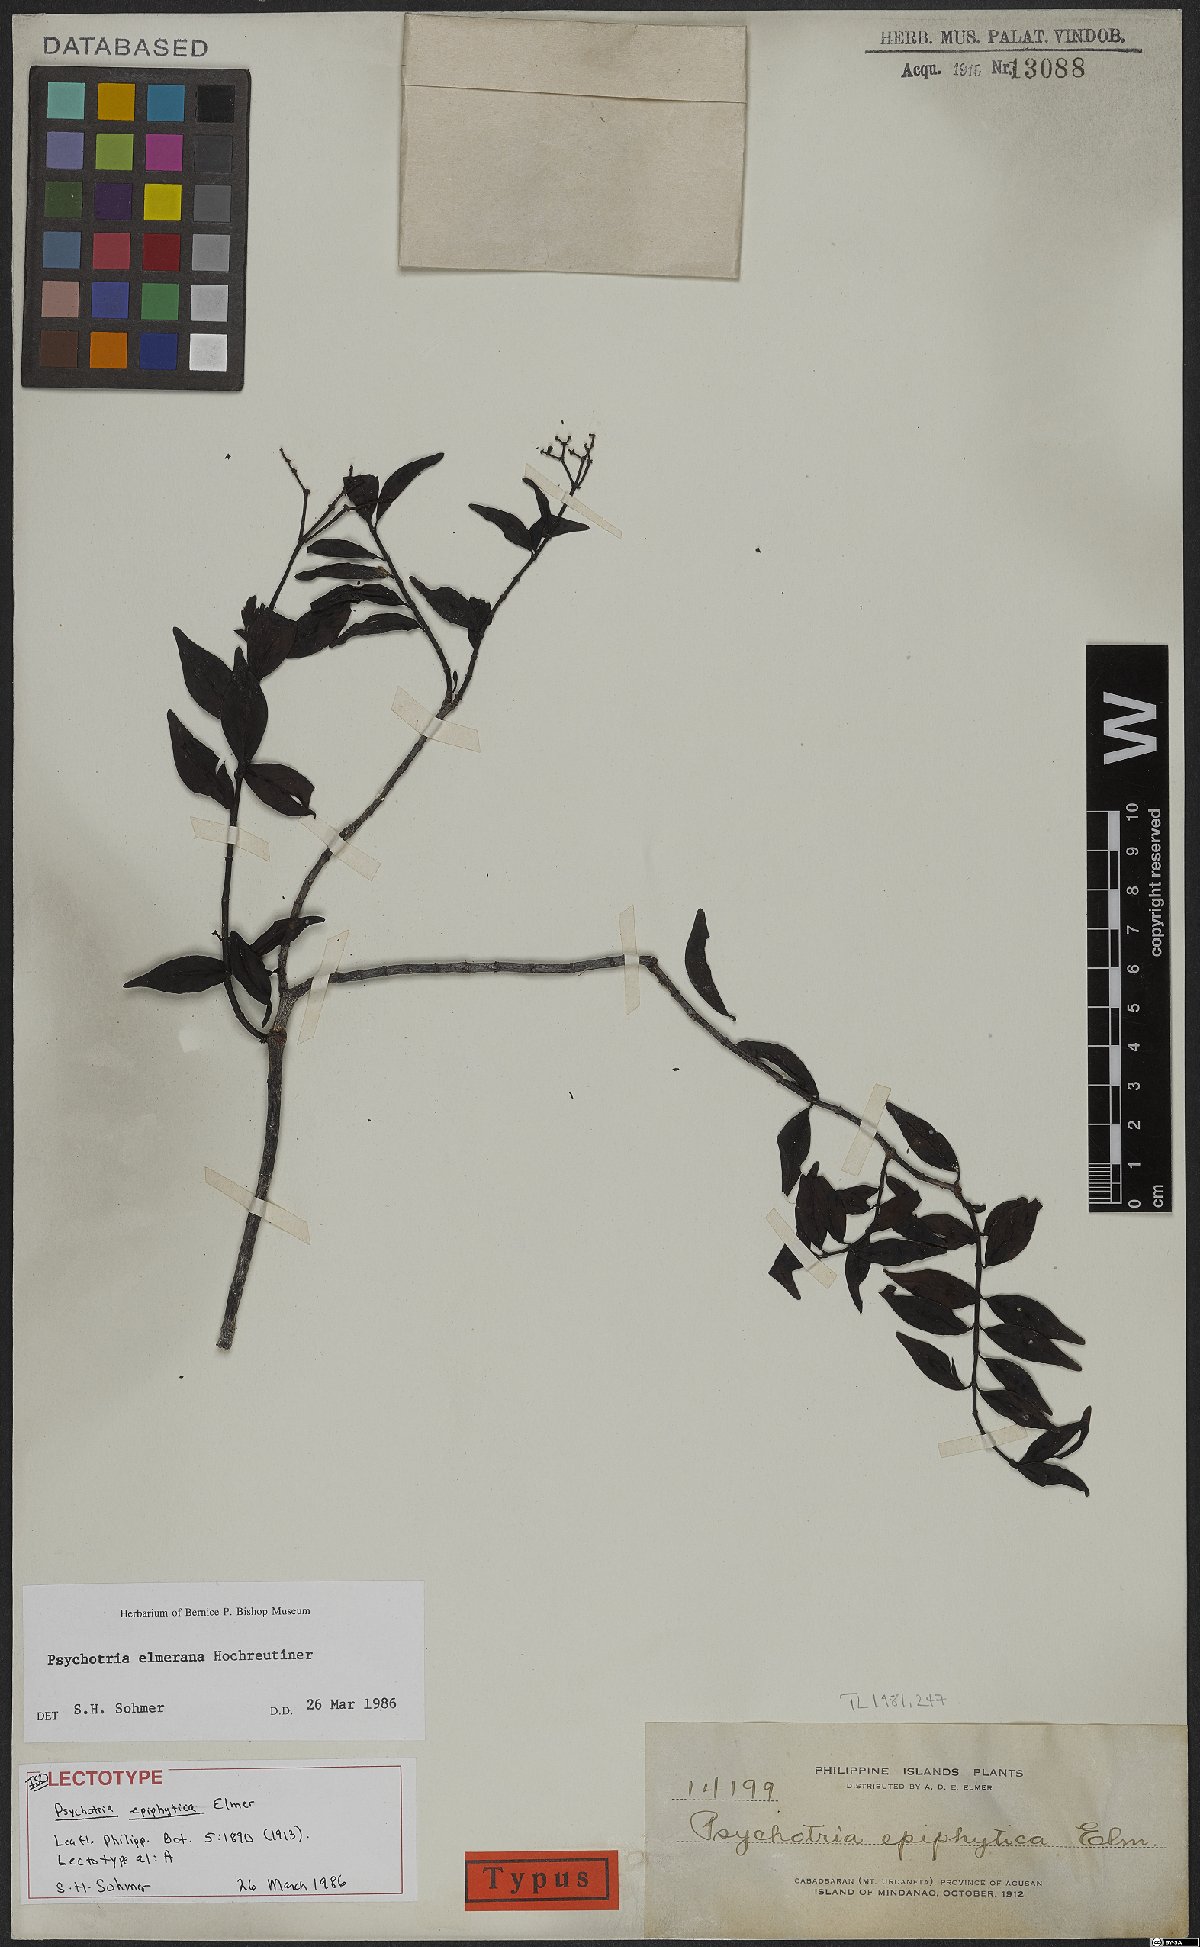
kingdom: Plantae
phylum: Tracheophyta
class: Magnoliopsida
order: Gentianales
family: Rubiaceae
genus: Psychotria
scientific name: Psychotria elmeriana
